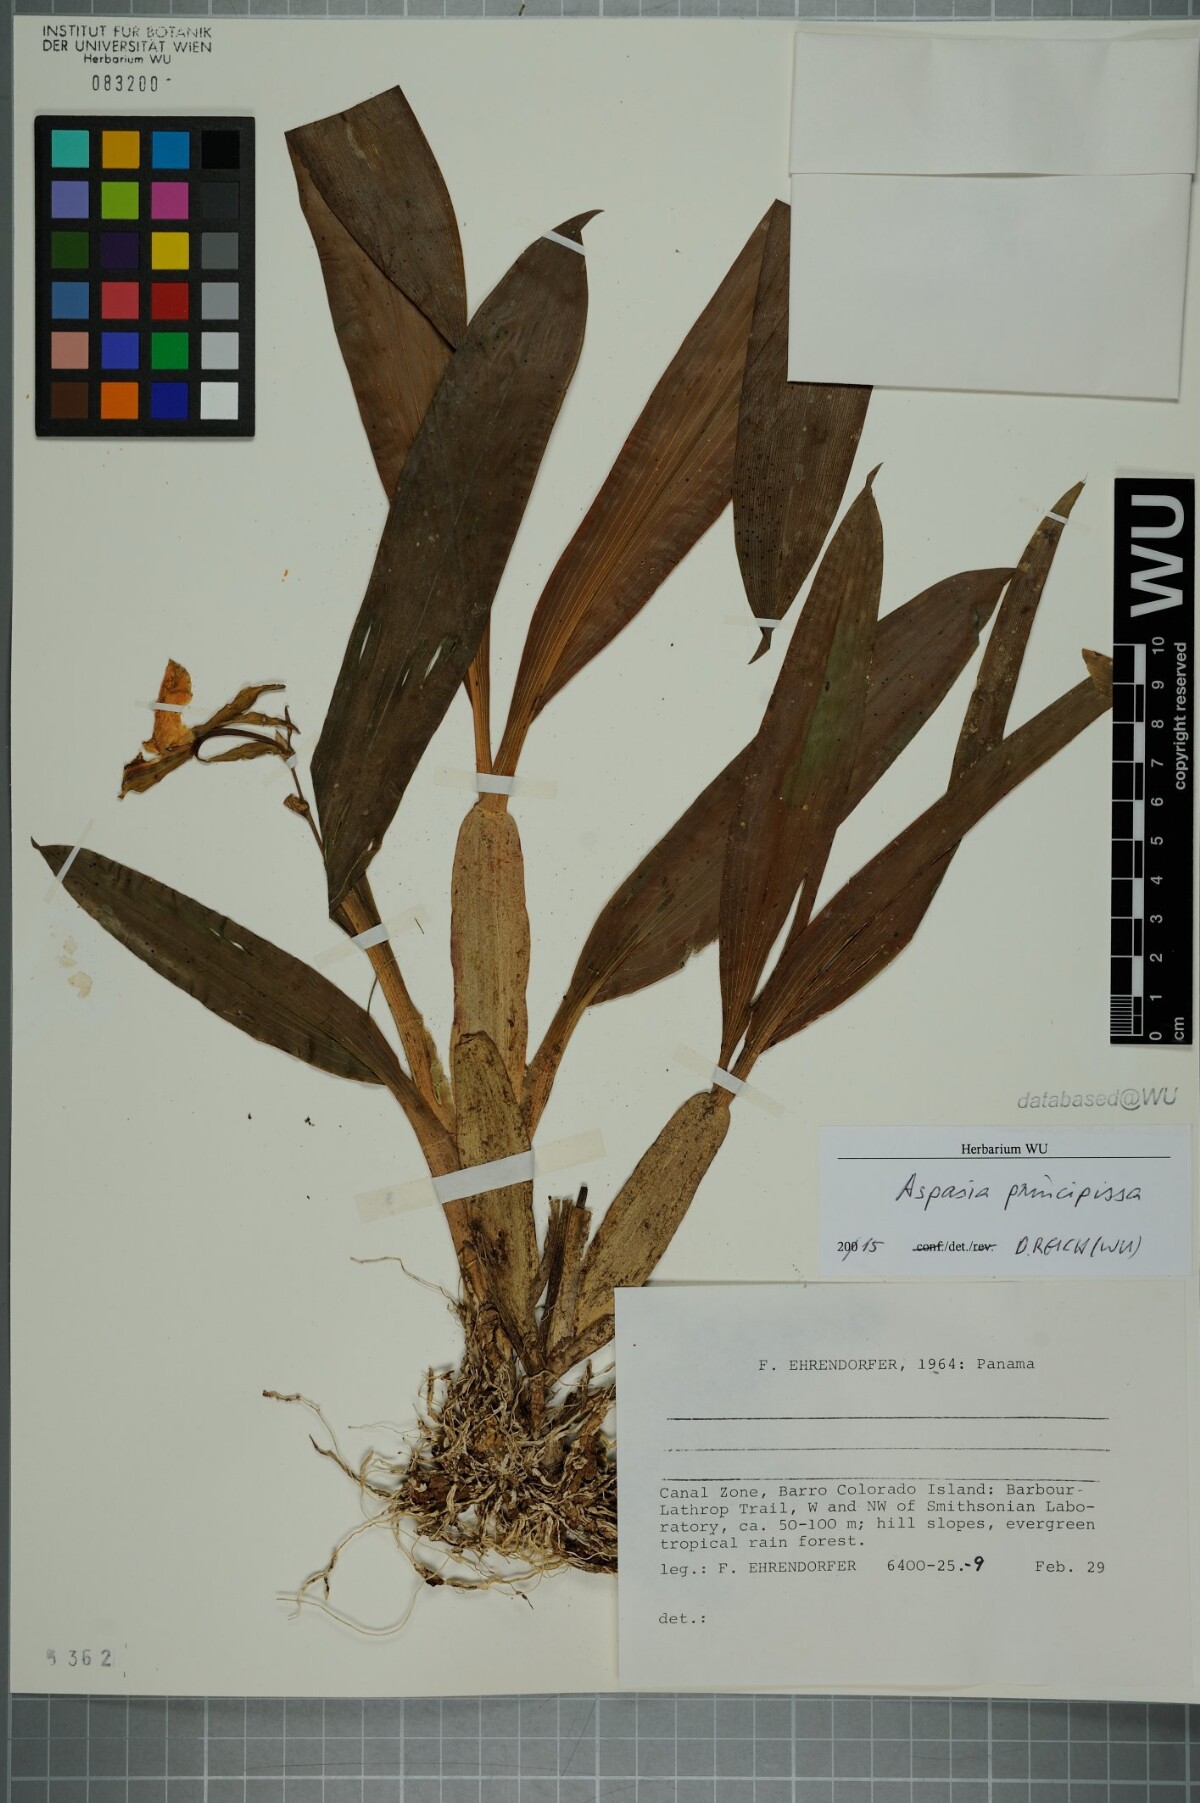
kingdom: Plantae
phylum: Tracheophyta
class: Liliopsida
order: Asparagales
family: Orchidaceae
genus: Aspasia
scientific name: Aspasia principissa
